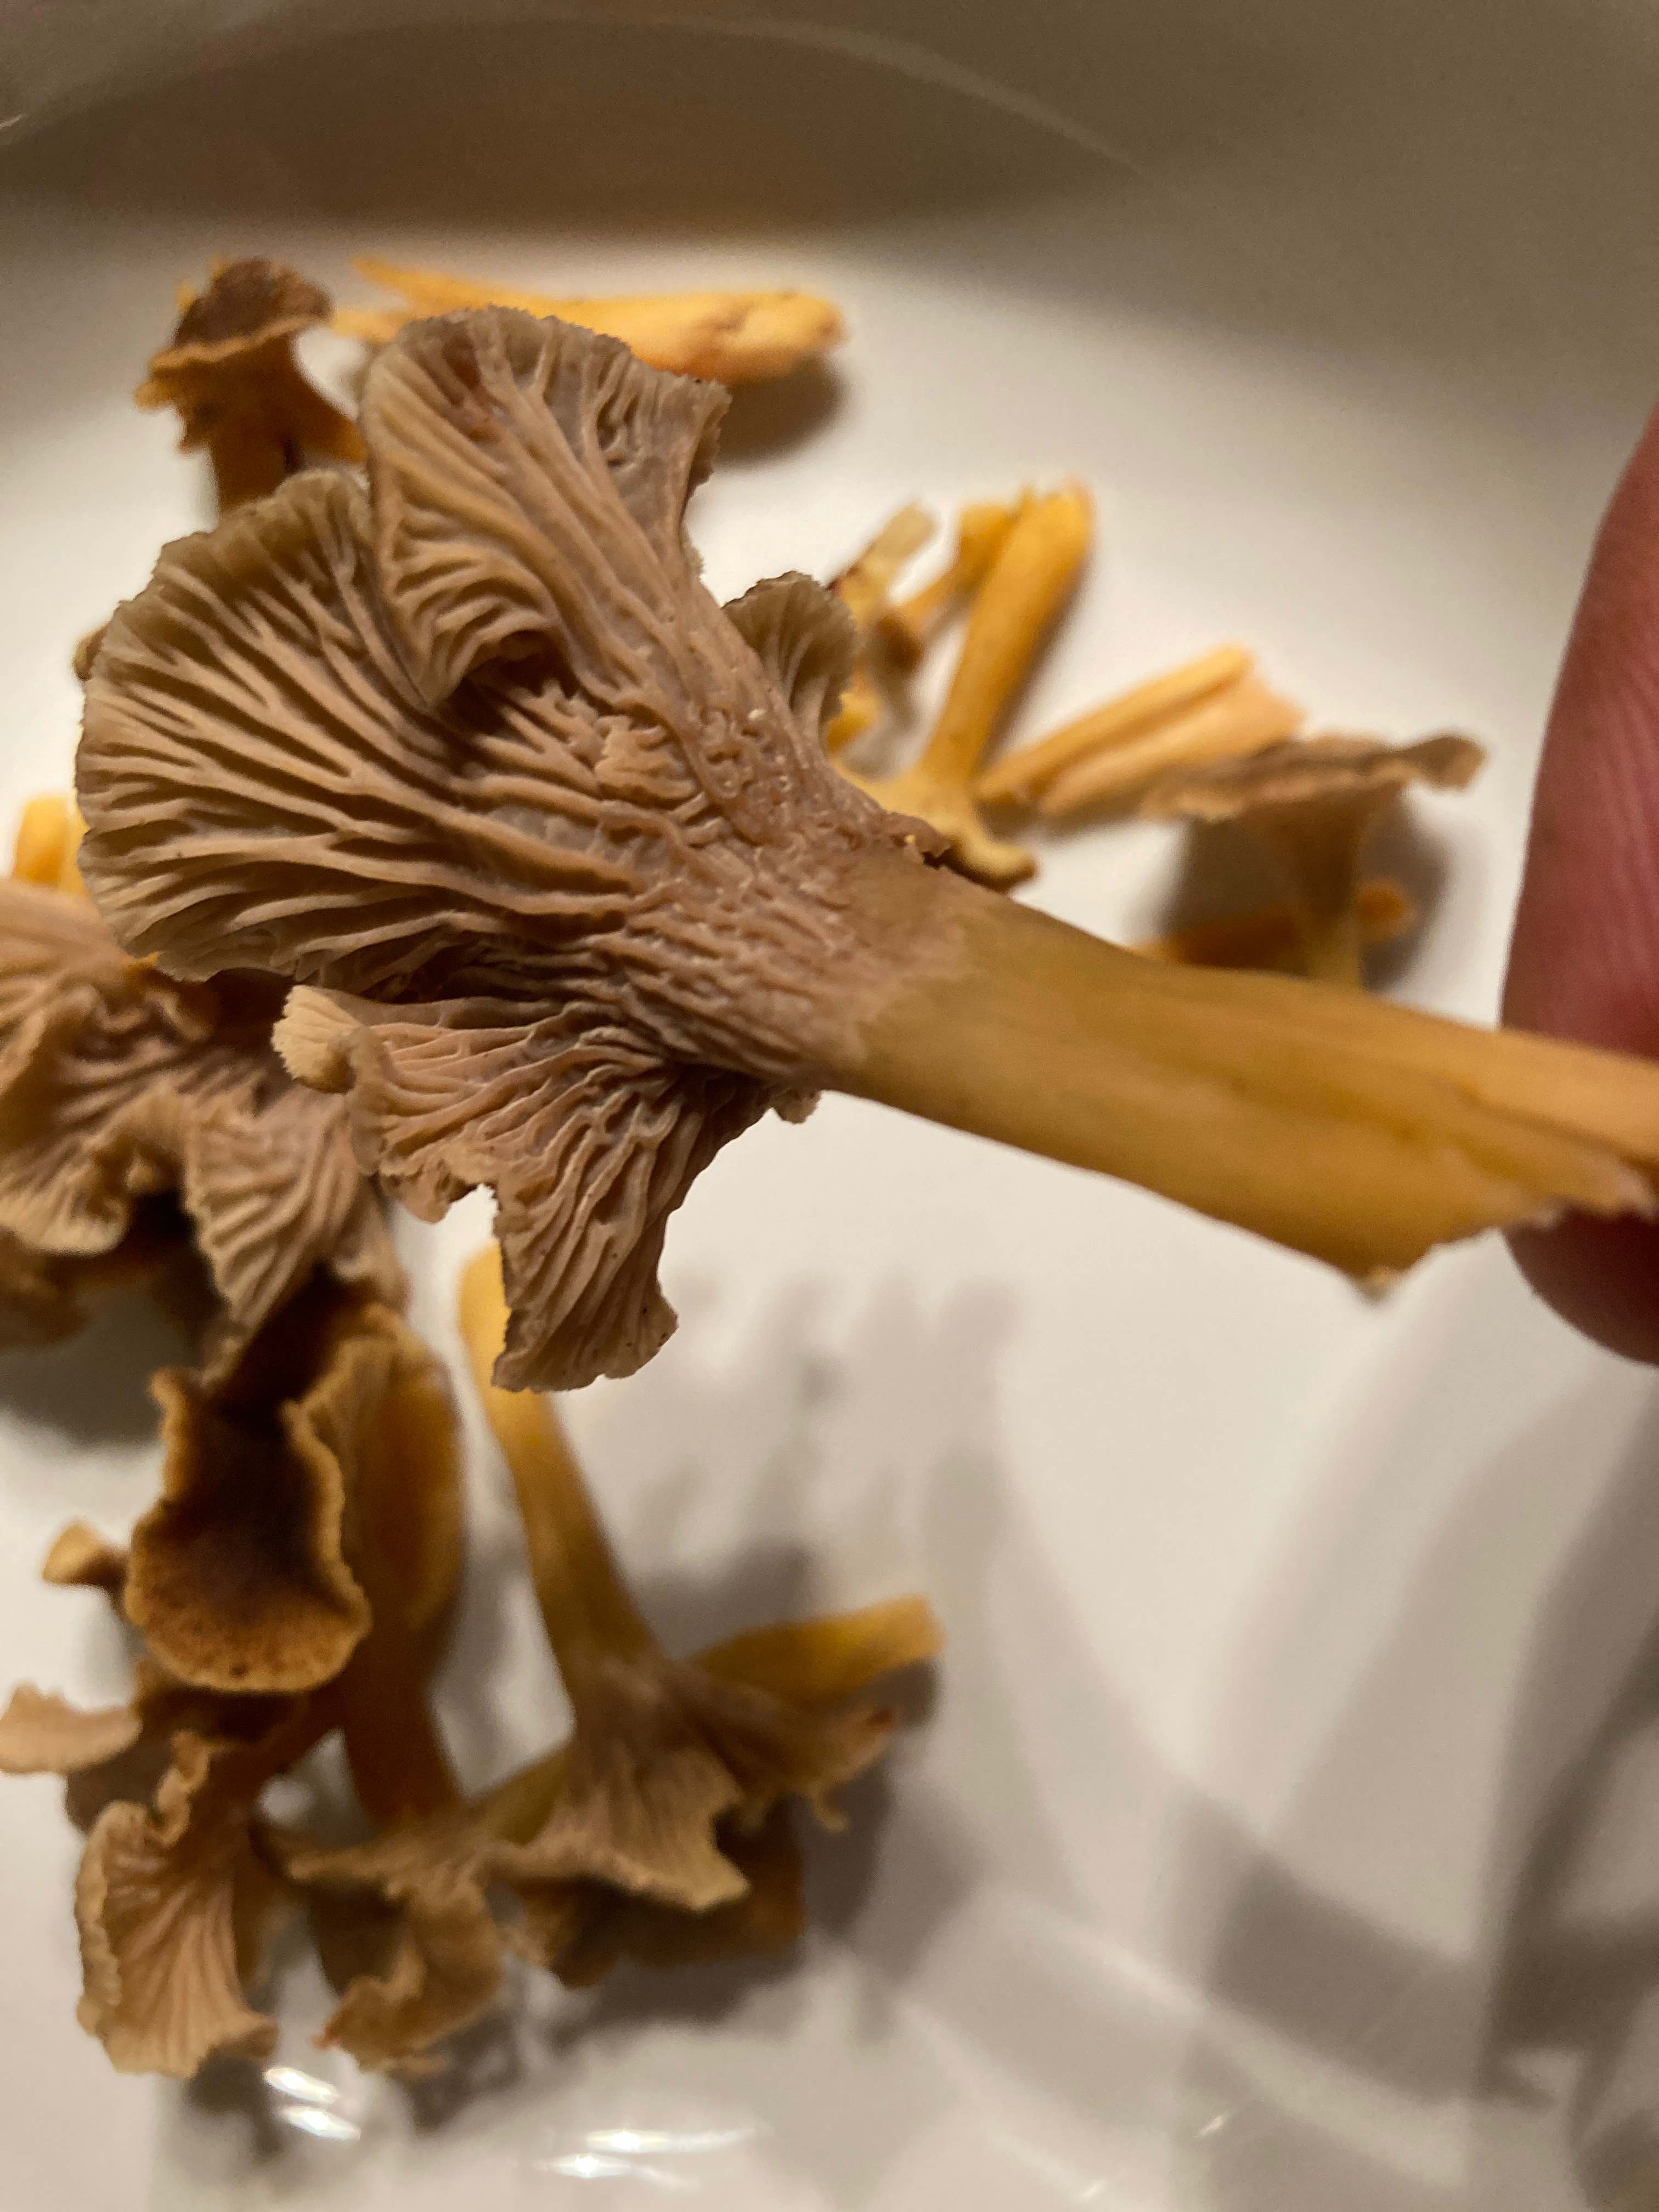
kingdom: Fungi
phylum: Basidiomycota
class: Agaricomycetes
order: Cantharellales
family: Hydnaceae
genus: Craterellus
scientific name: Craterellus tubaeformis
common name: tragt-kantarel
